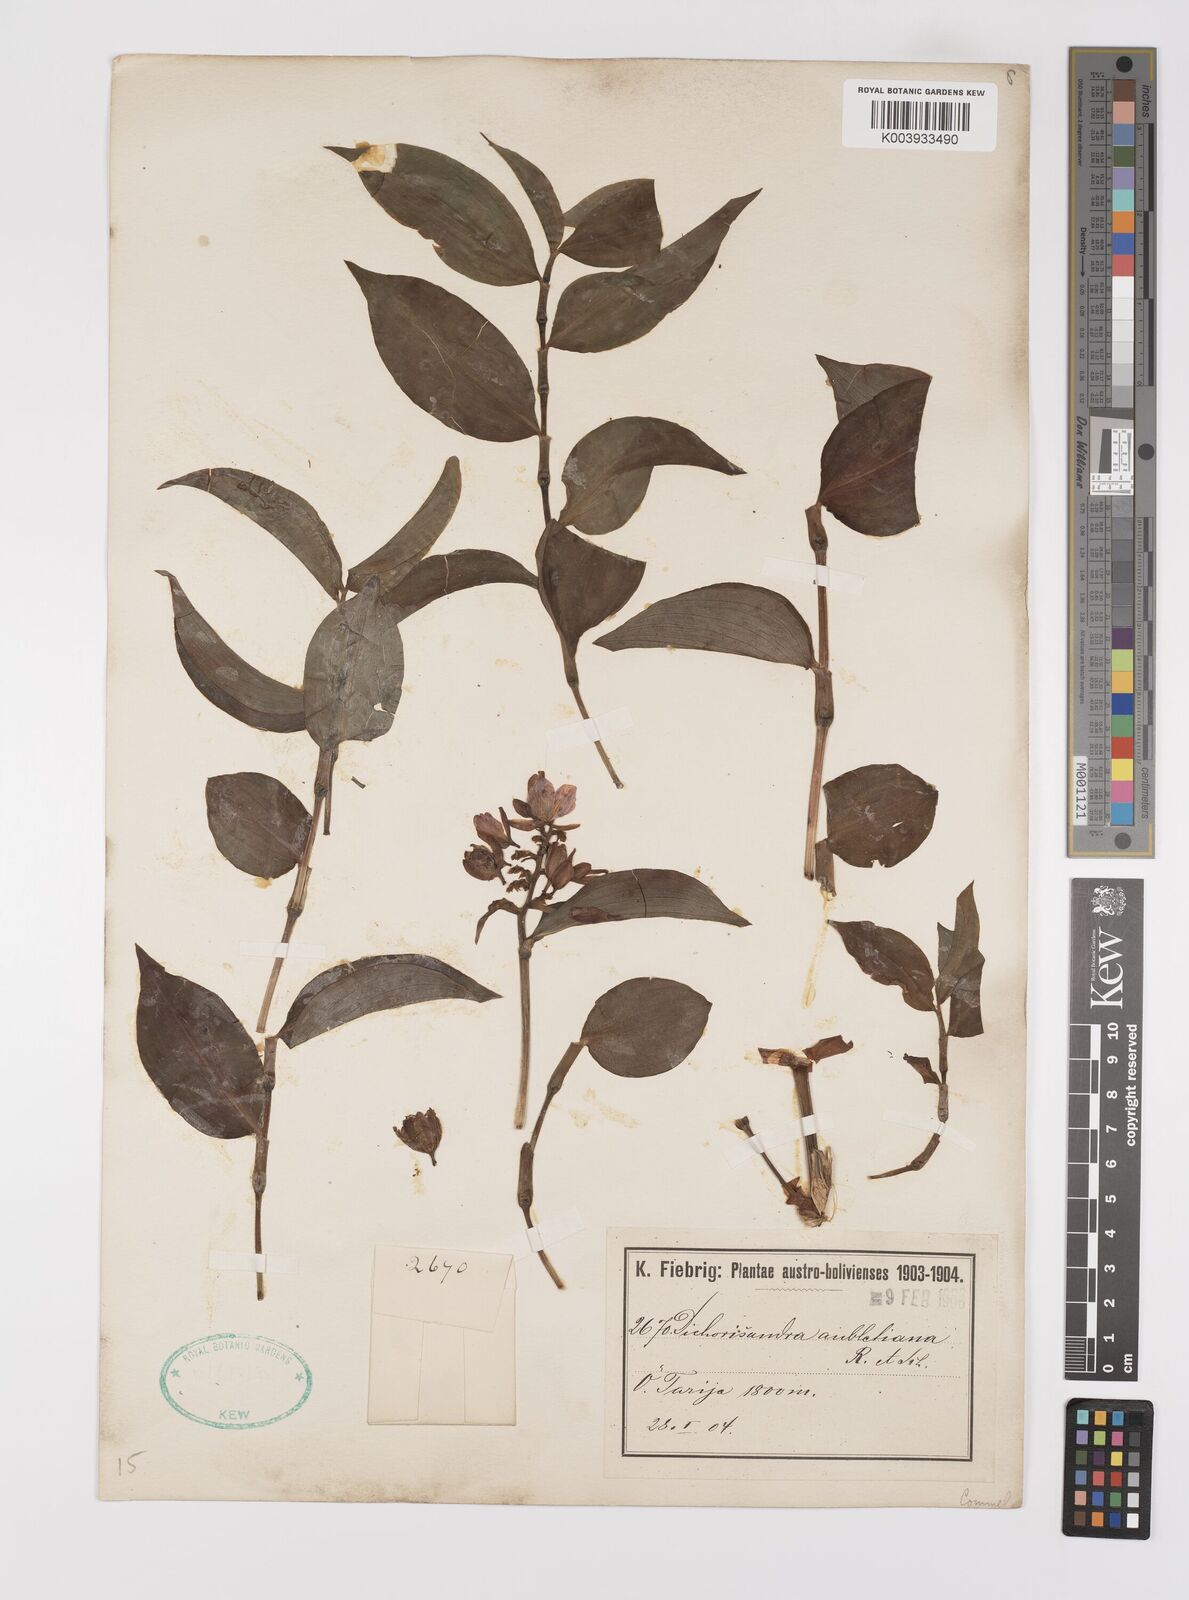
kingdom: Plantae
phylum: Tracheophyta
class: Liliopsida
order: Commelinales
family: Commelinaceae
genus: Dichorisandra
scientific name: Dichorisandra hexandra
